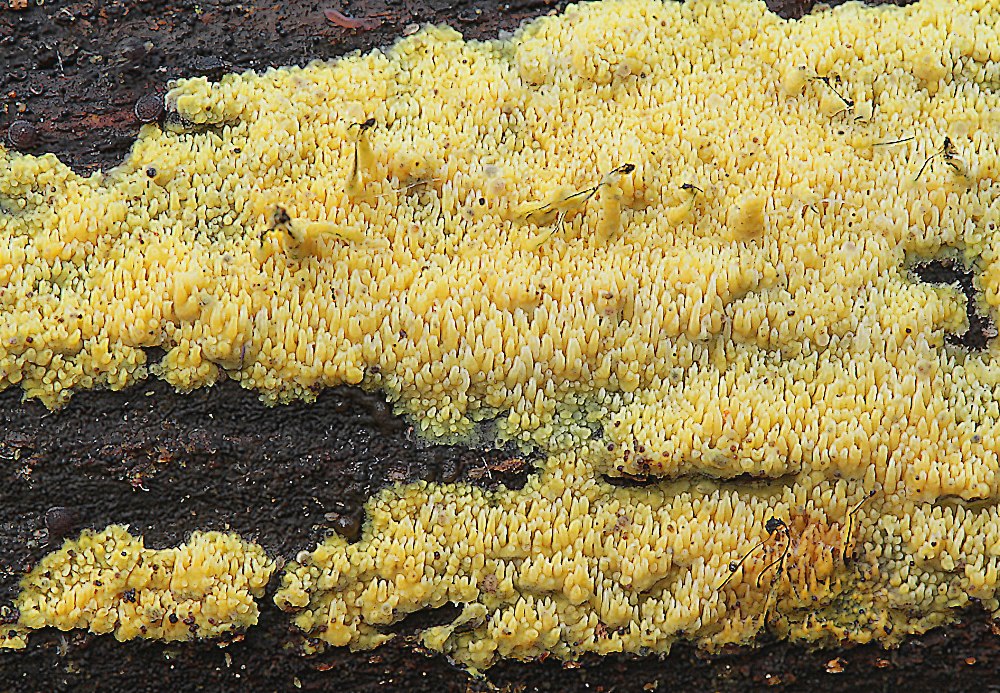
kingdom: Fungi
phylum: Basidiomycota
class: Agaricomycetes
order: Polyporales
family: Meruliaceae
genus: Mycoacia
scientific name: Mycoacia uda
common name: citrongul vokspig
